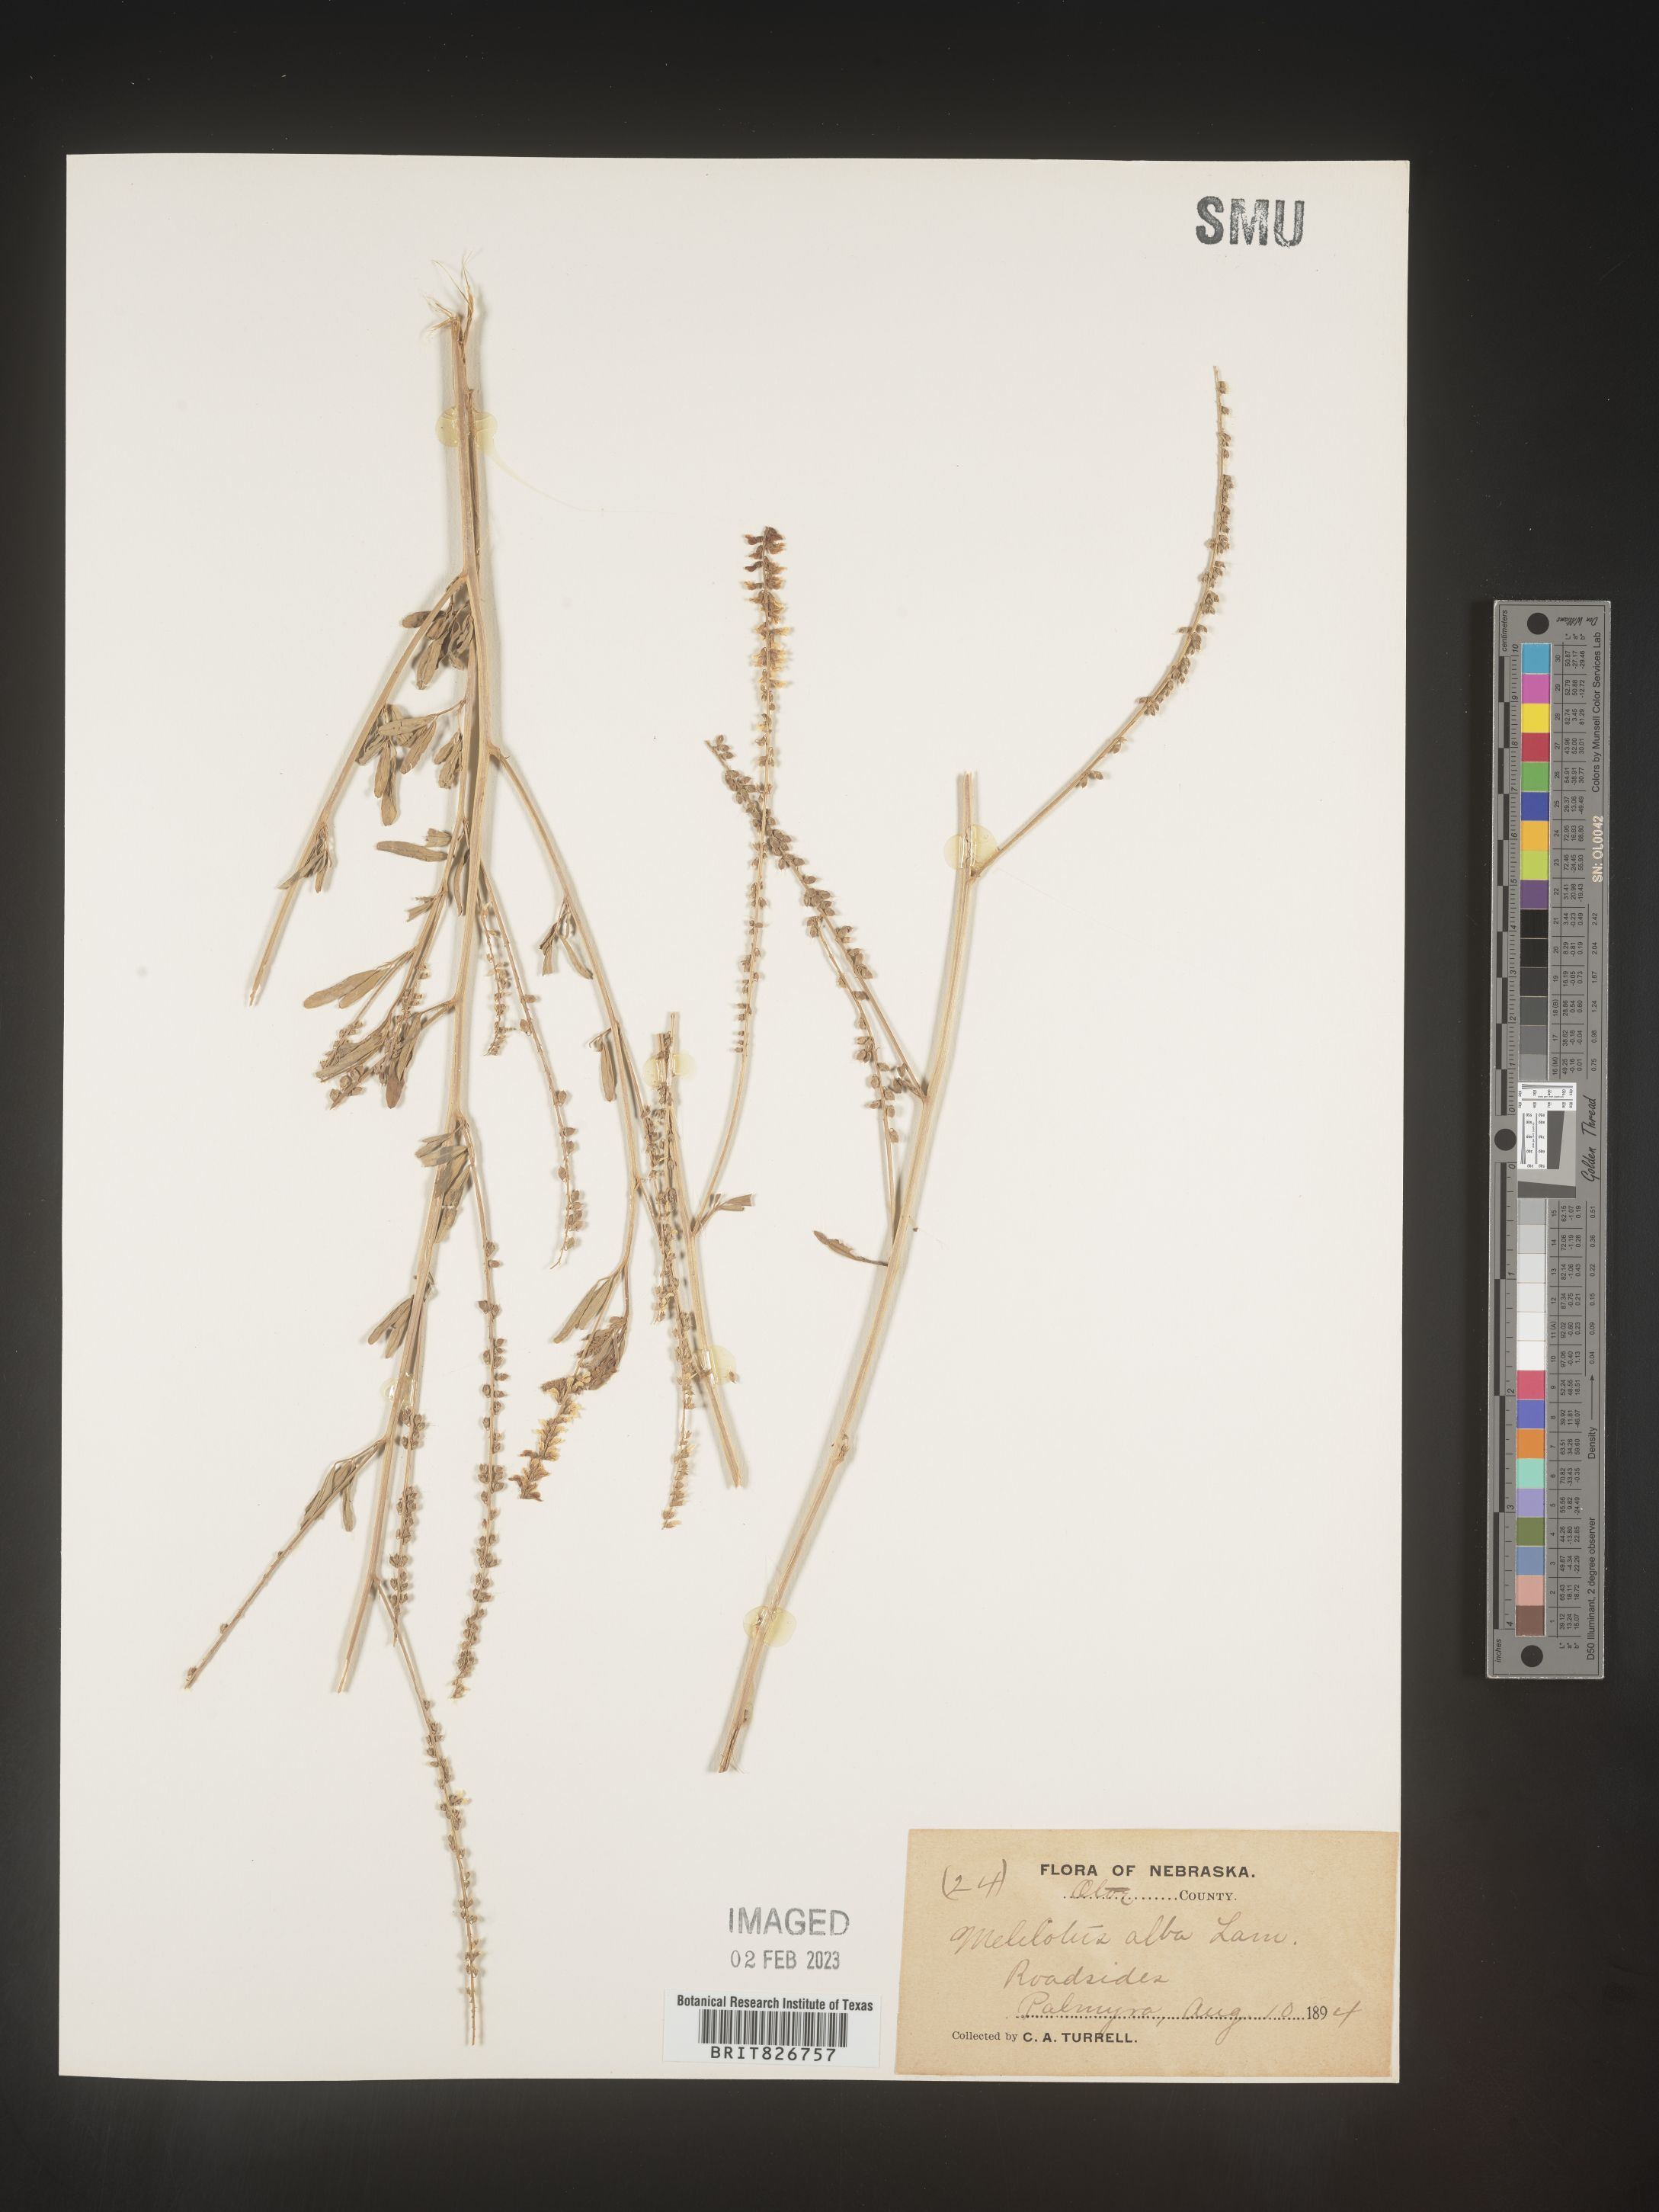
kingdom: Plantae
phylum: Tracheophyta
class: Magnoliopsida
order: Fabales
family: Fabaceae
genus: Melilotus
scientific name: Melilotus albus
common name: White melilot
